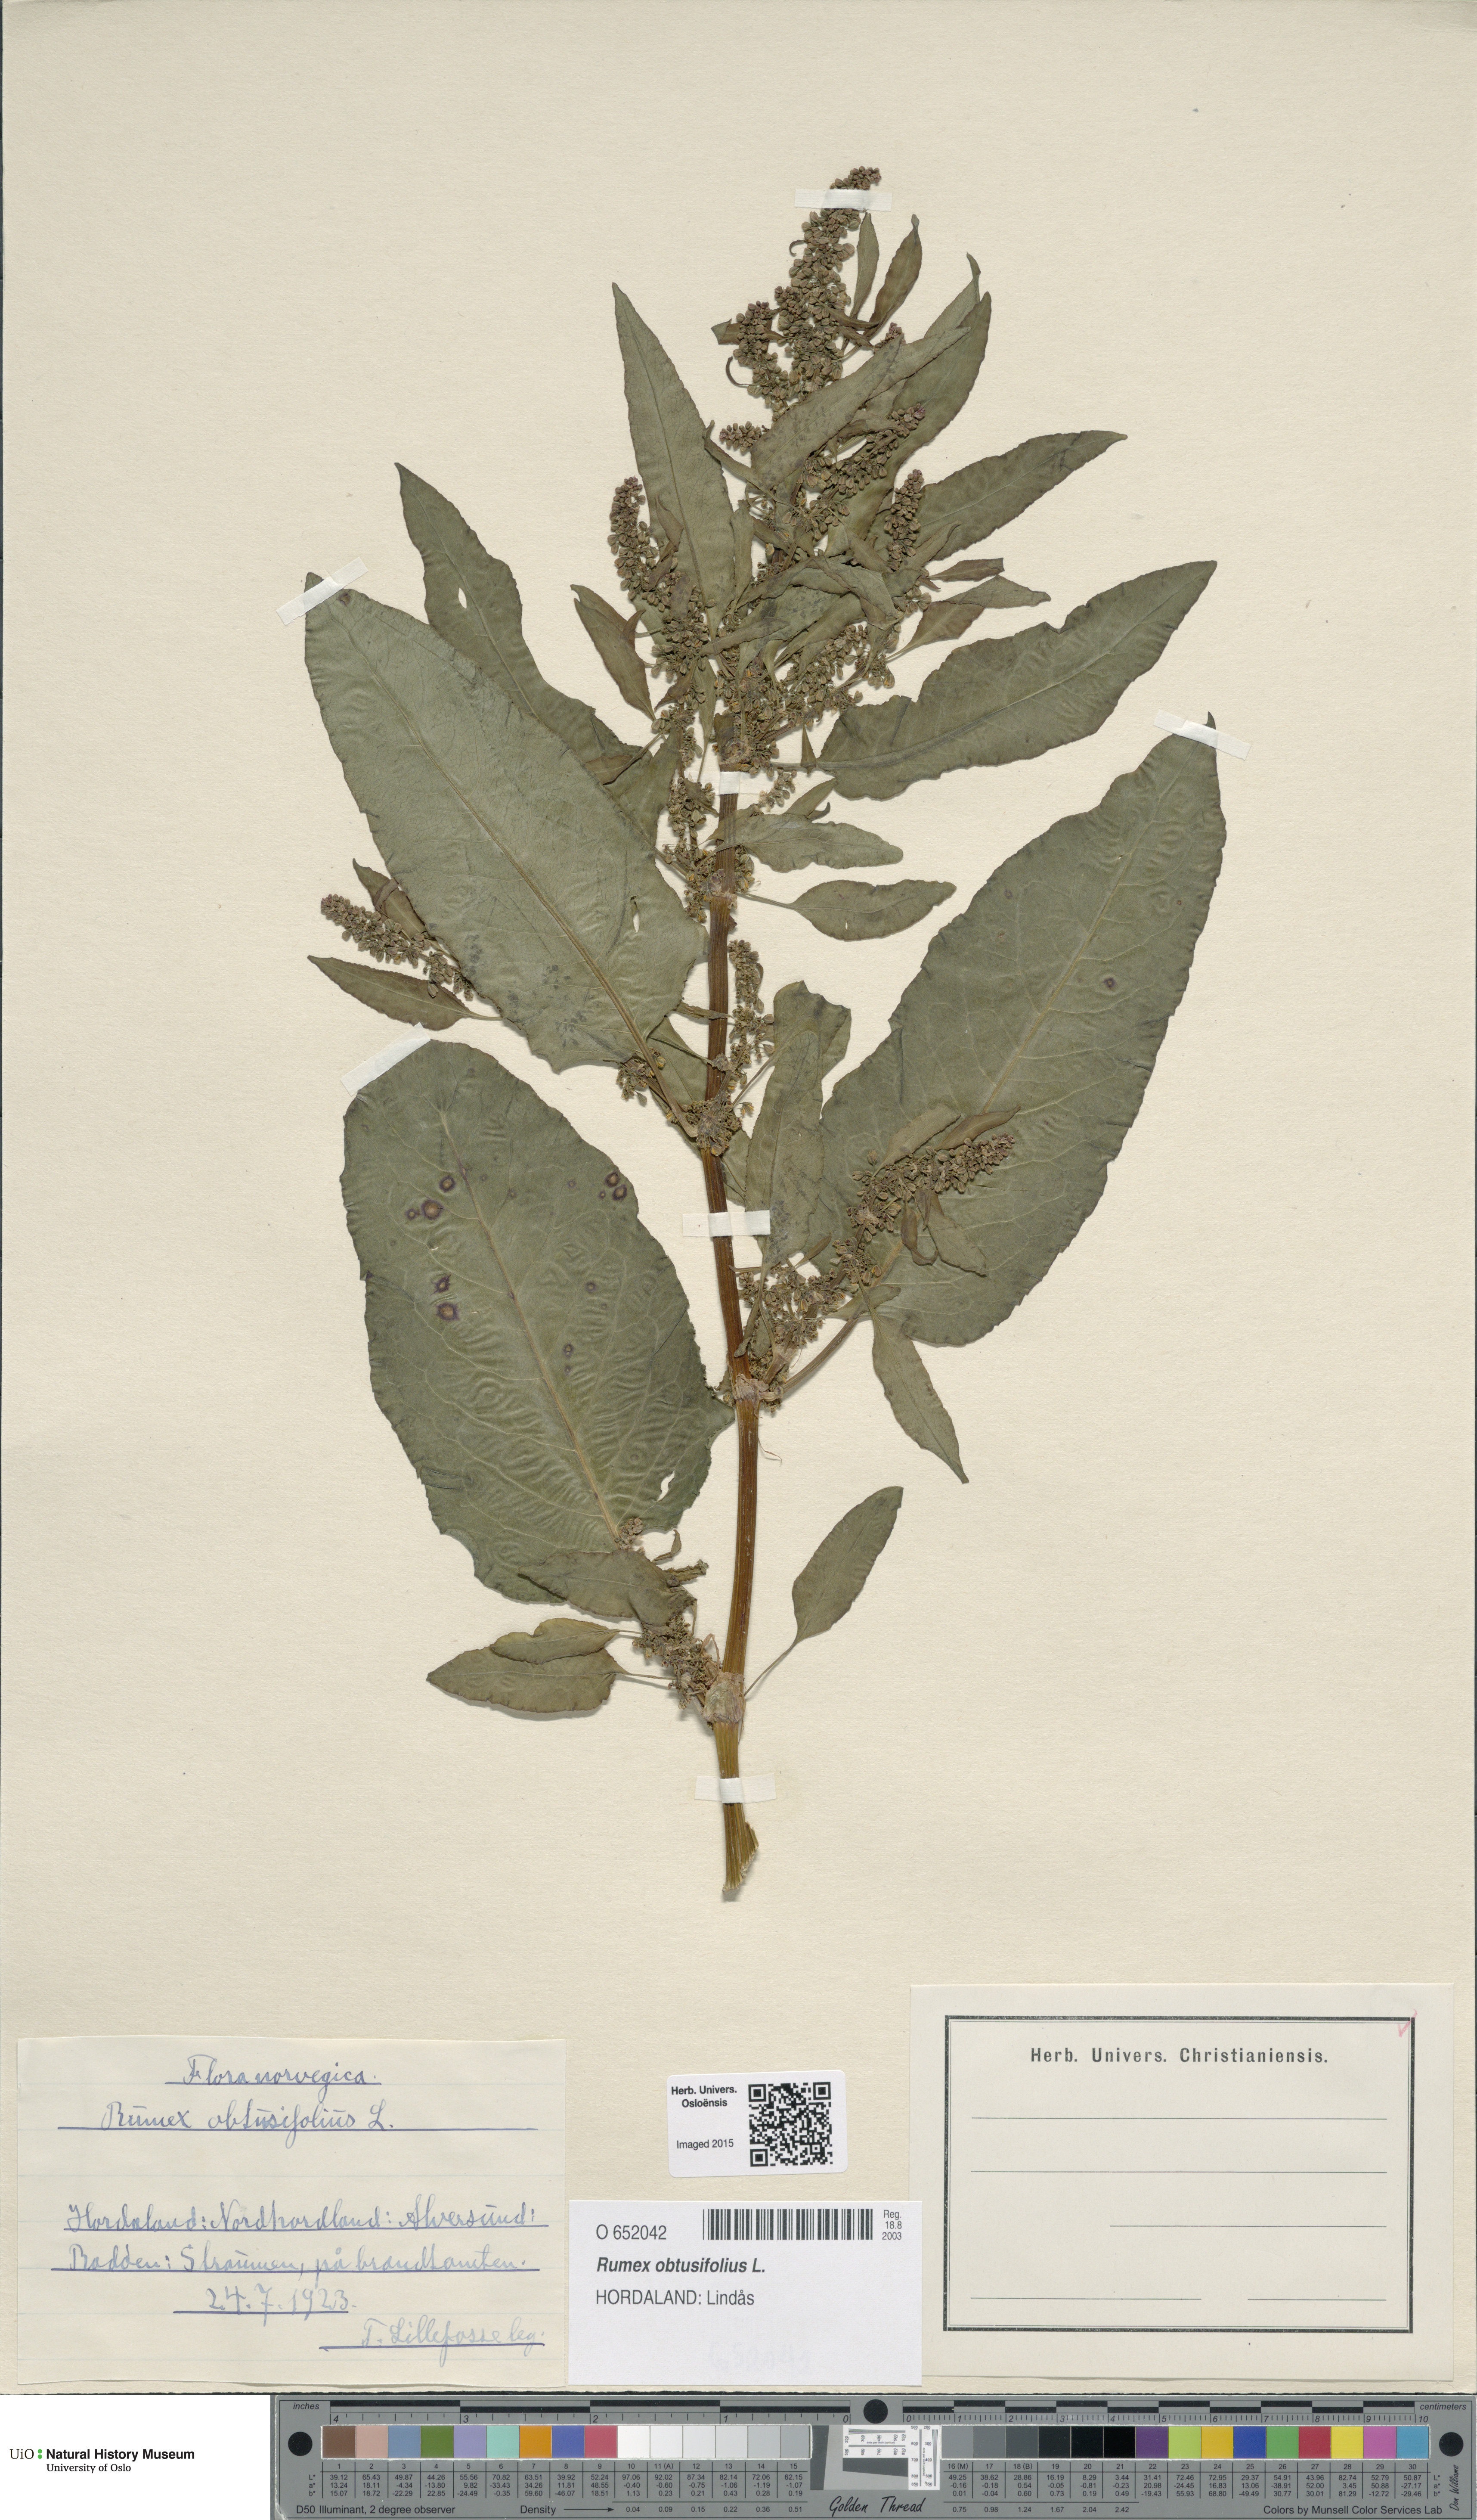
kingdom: Plantae
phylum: Tracheophyta
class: Magnoliopsida
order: Caryophyllales
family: Polygonaceae
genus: Rumex
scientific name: Rumex obtusifolius
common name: Bitter dock
